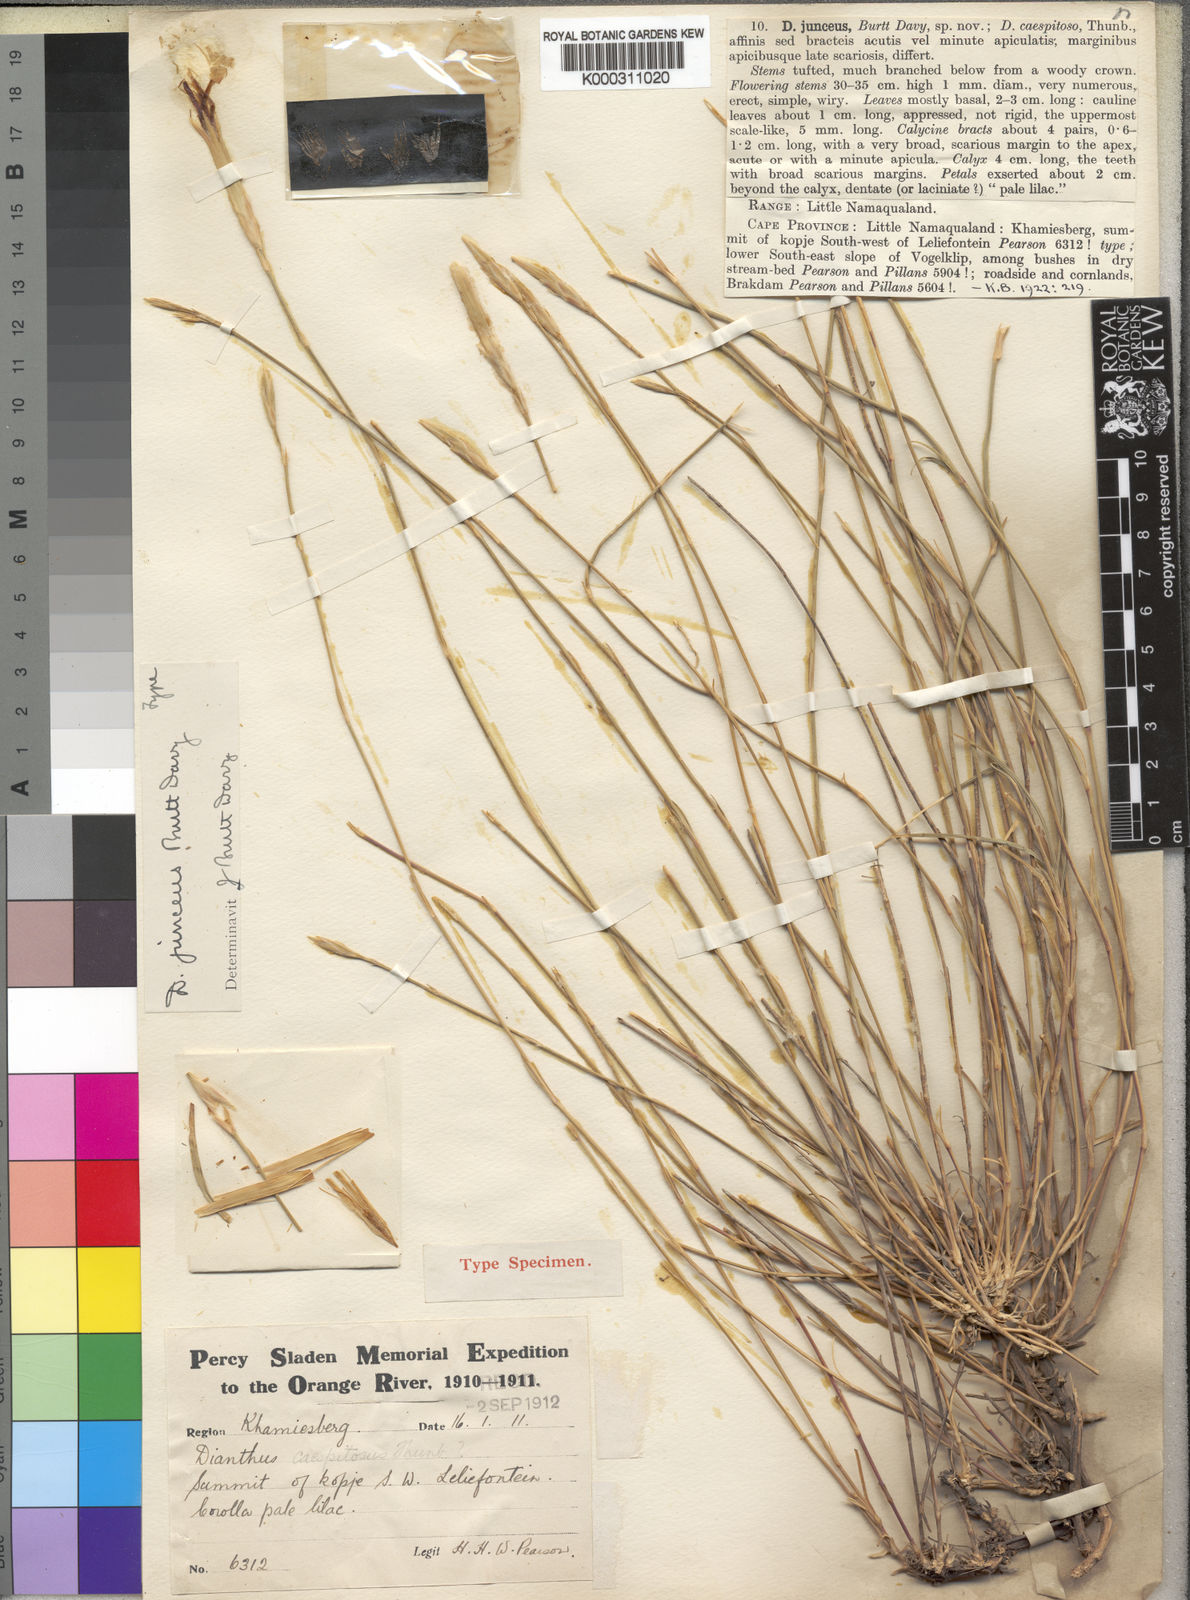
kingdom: Plantae
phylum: Tracheophyta
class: Magnoliopsida
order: Caryophyllales
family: Caryophyllaceae
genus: Dianthus
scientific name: Dianthus caespitosus
